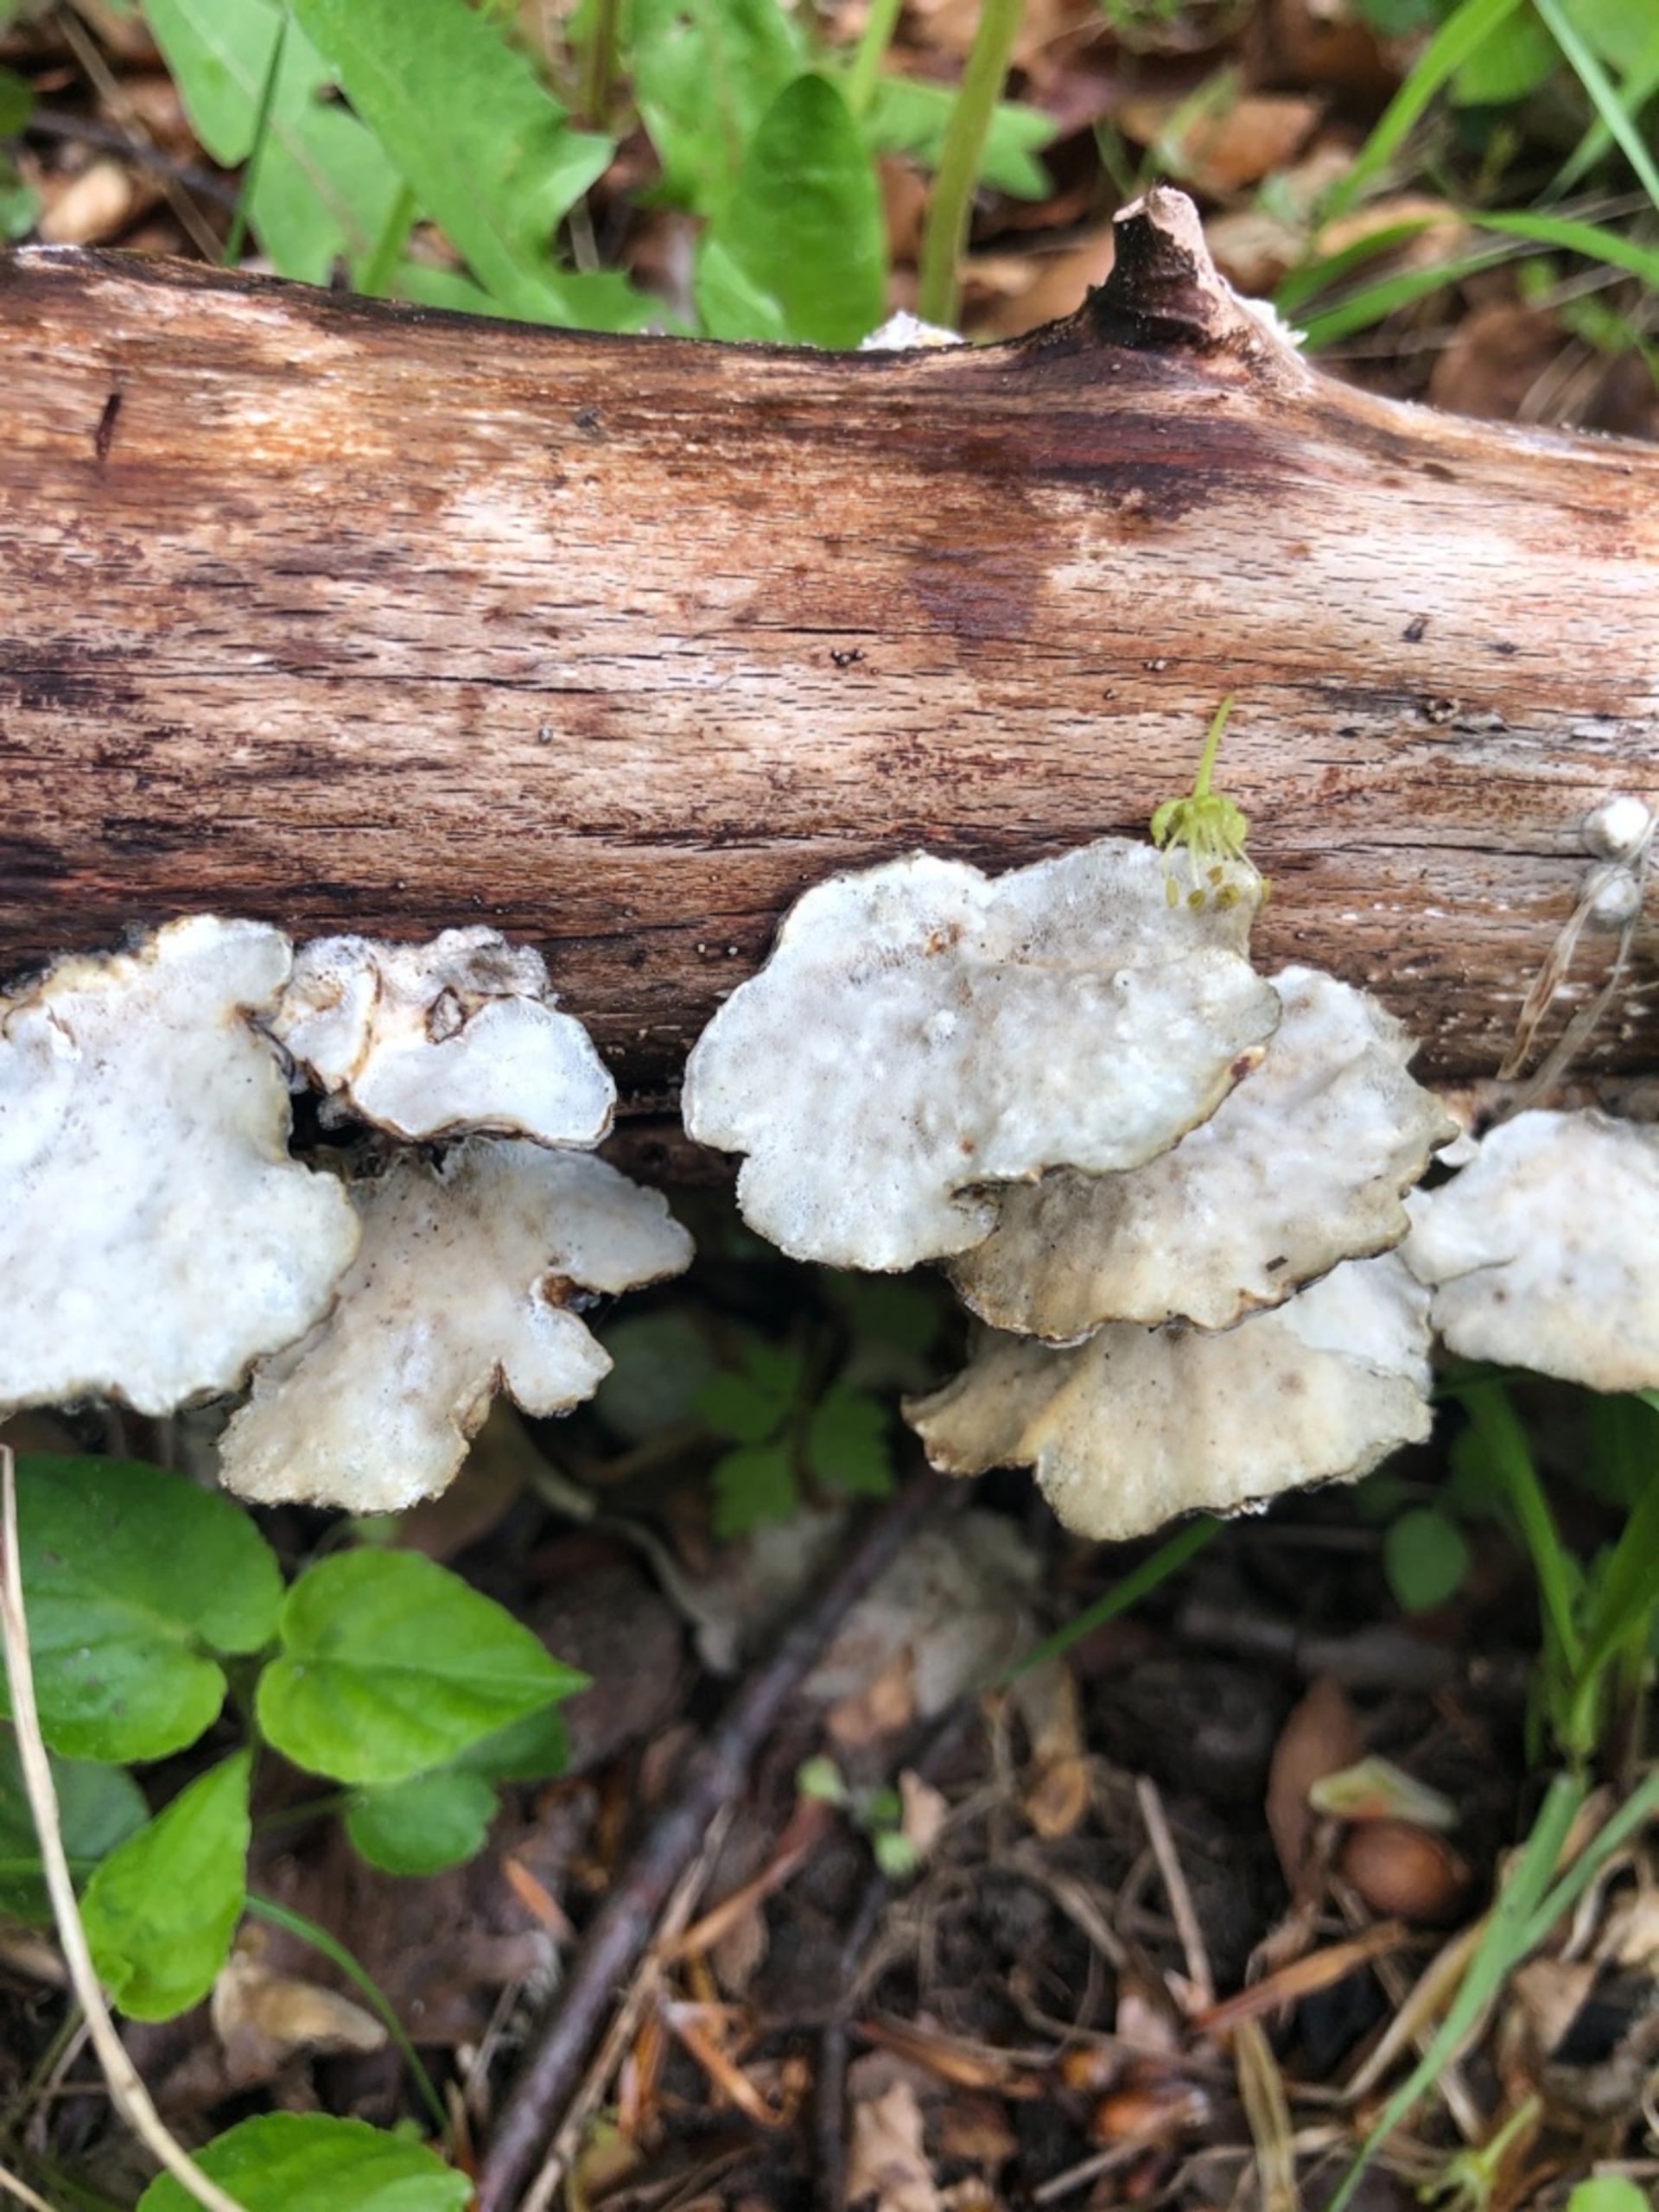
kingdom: Fungi
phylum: Basidiomycota
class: Agaricomycetes
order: Polyporales
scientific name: Polyporales
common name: Poresvampordenen
